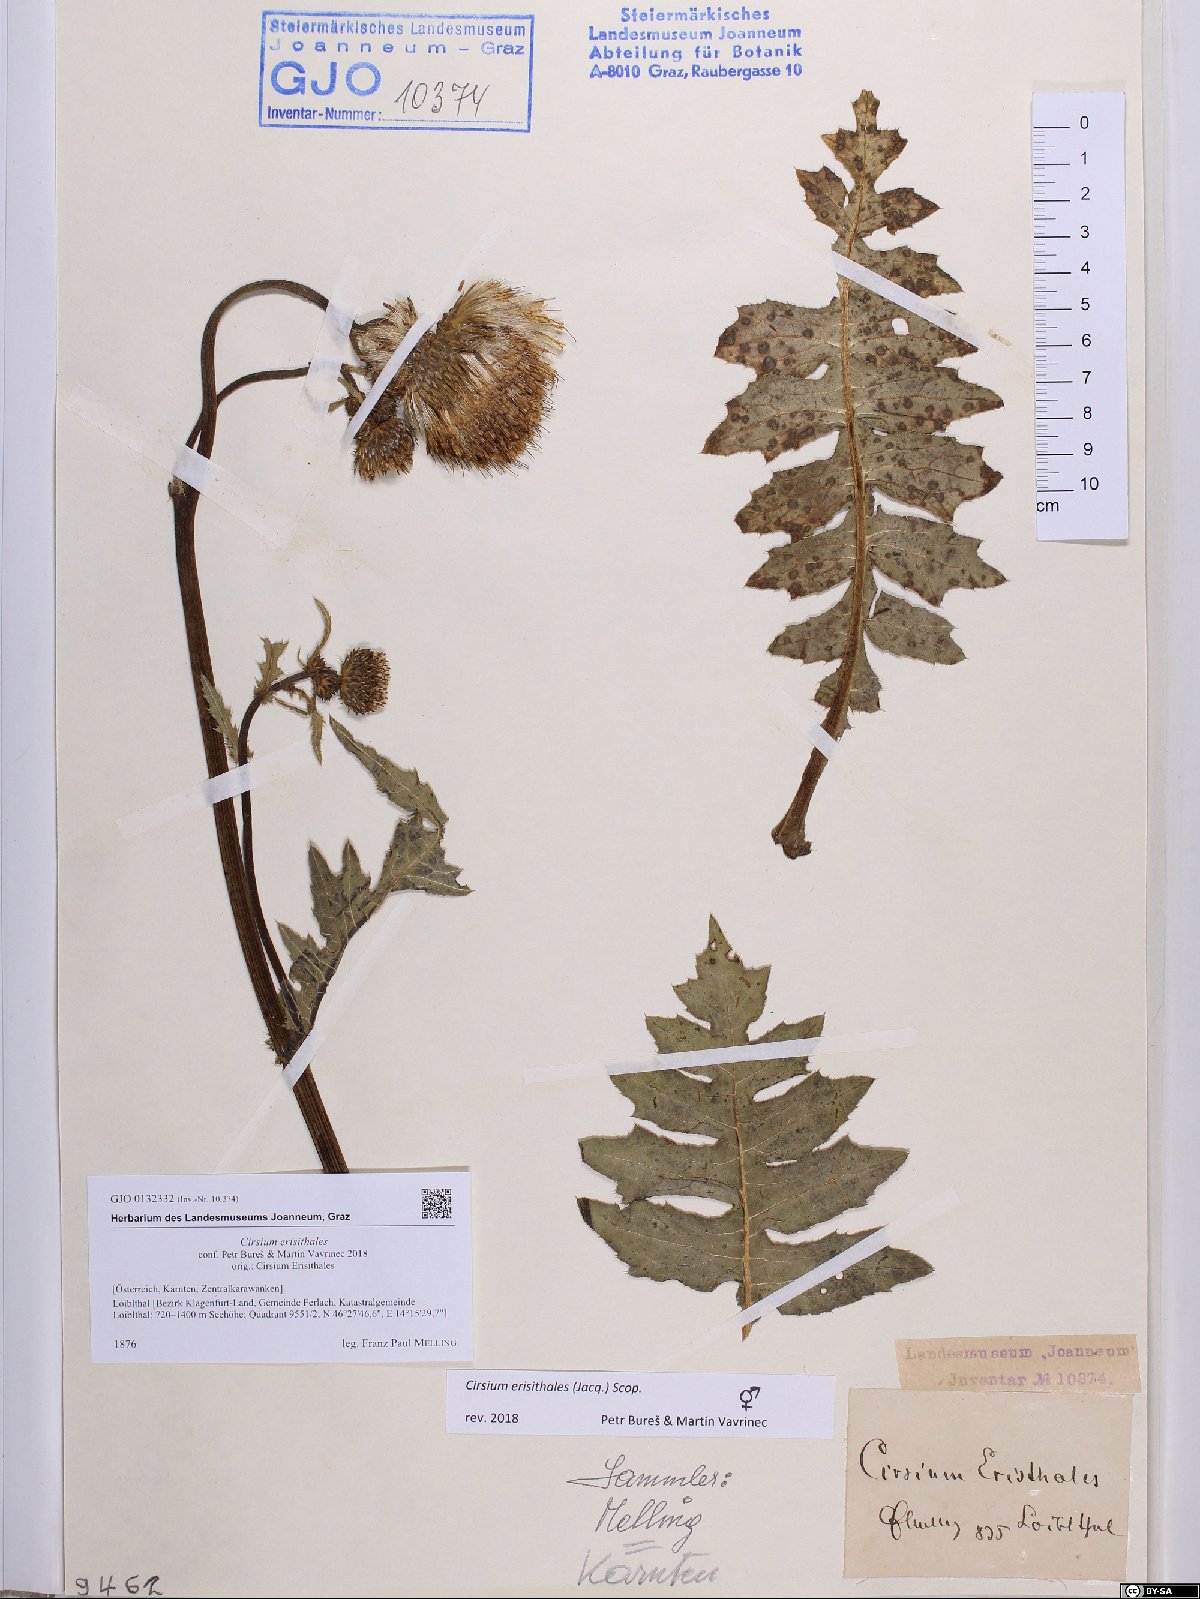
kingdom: Plantae
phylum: Tracheophyta
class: Magnoliopsida
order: Asterales
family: Asteraceae
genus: Cirsium
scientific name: Cirsium erisithales
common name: Yellow thistle
